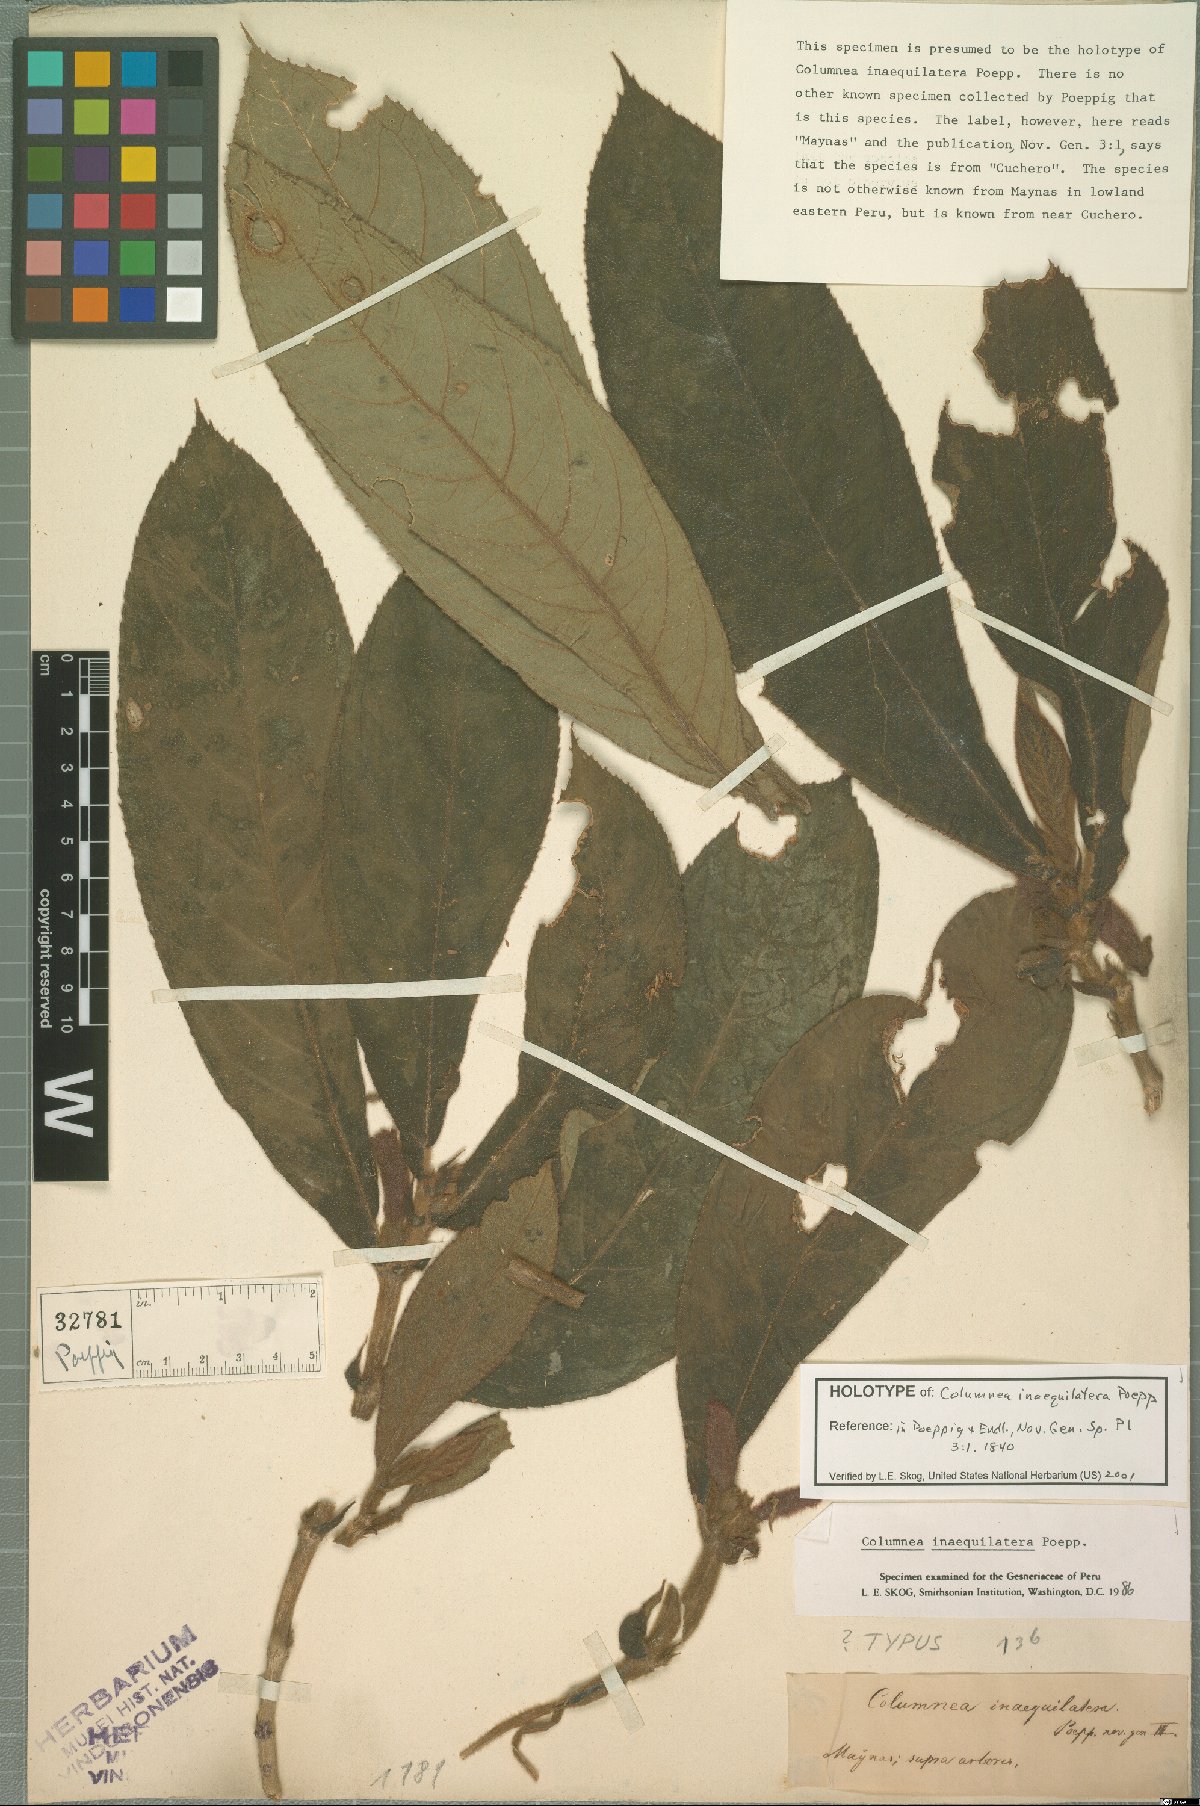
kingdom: Plantae
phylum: Tracheophyta
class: Magnoliopsida
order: Lamiales
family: Gesneriaceae
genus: Columnea
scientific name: Columnea inaequilatera
